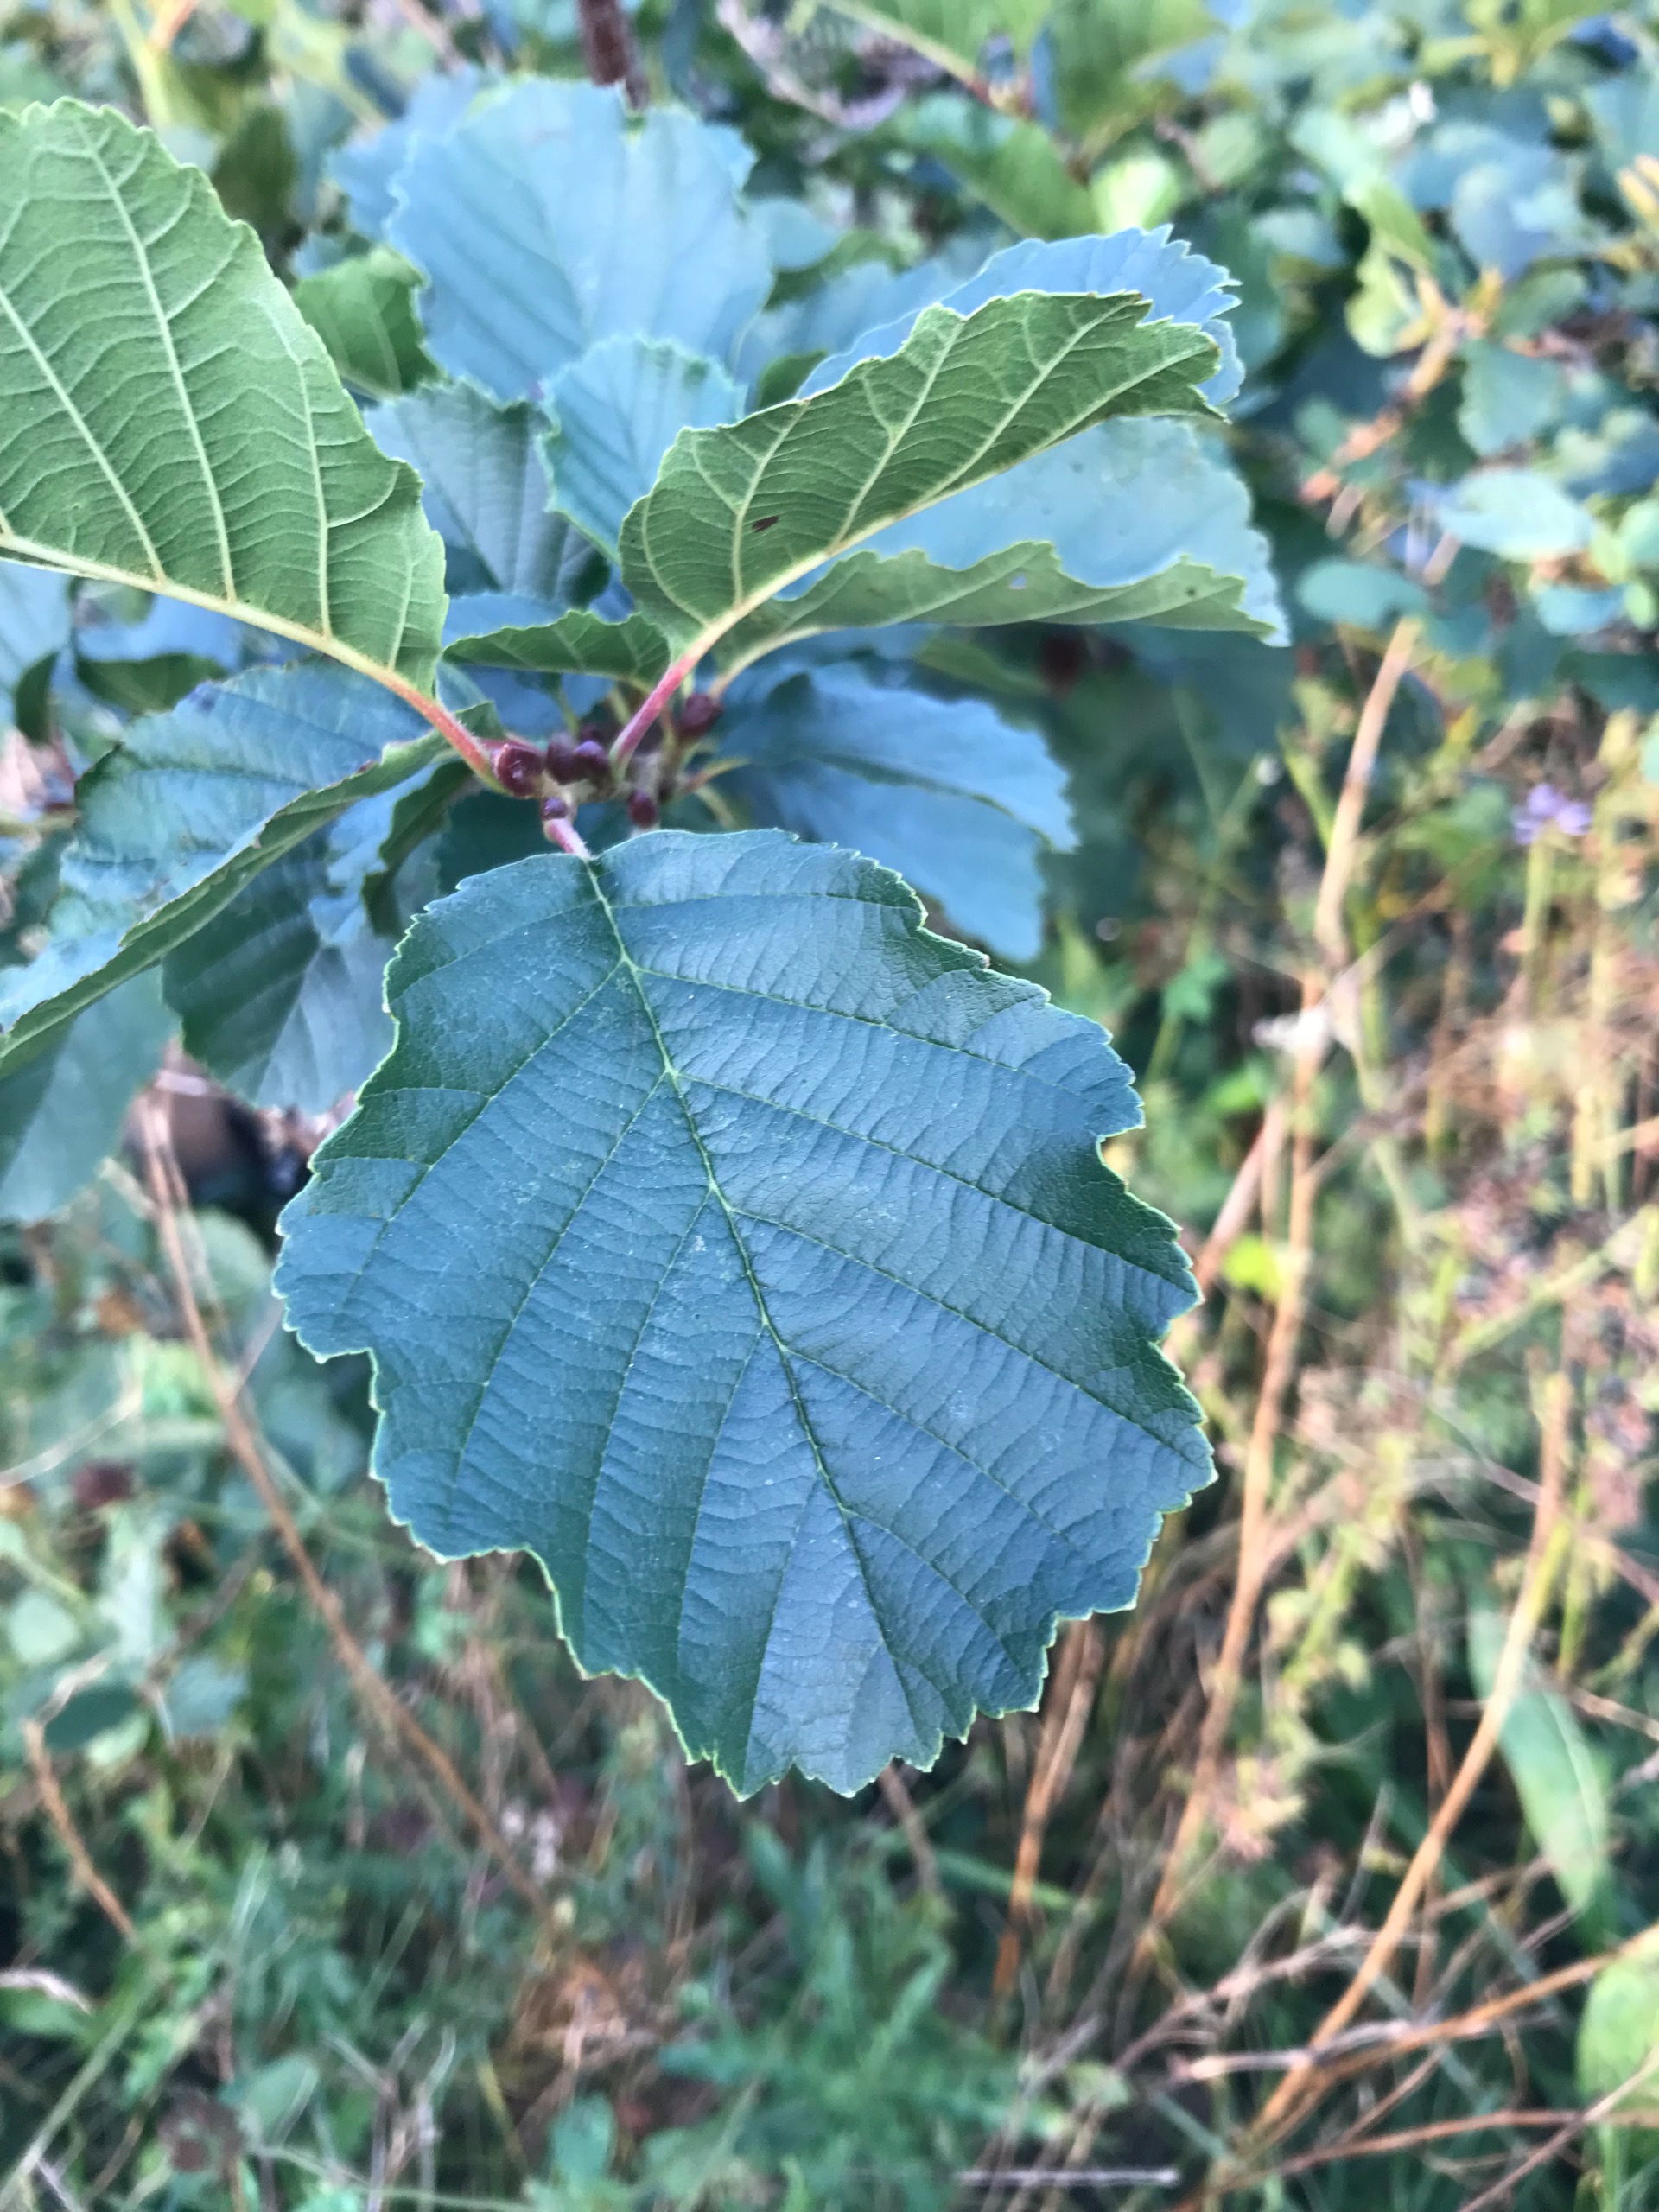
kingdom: Plantae
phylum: Tracheophyta
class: Magnoliopsida
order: Fagales
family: Betulaceae
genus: Alnus
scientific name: Alnus glutinosa
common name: Rød-el
